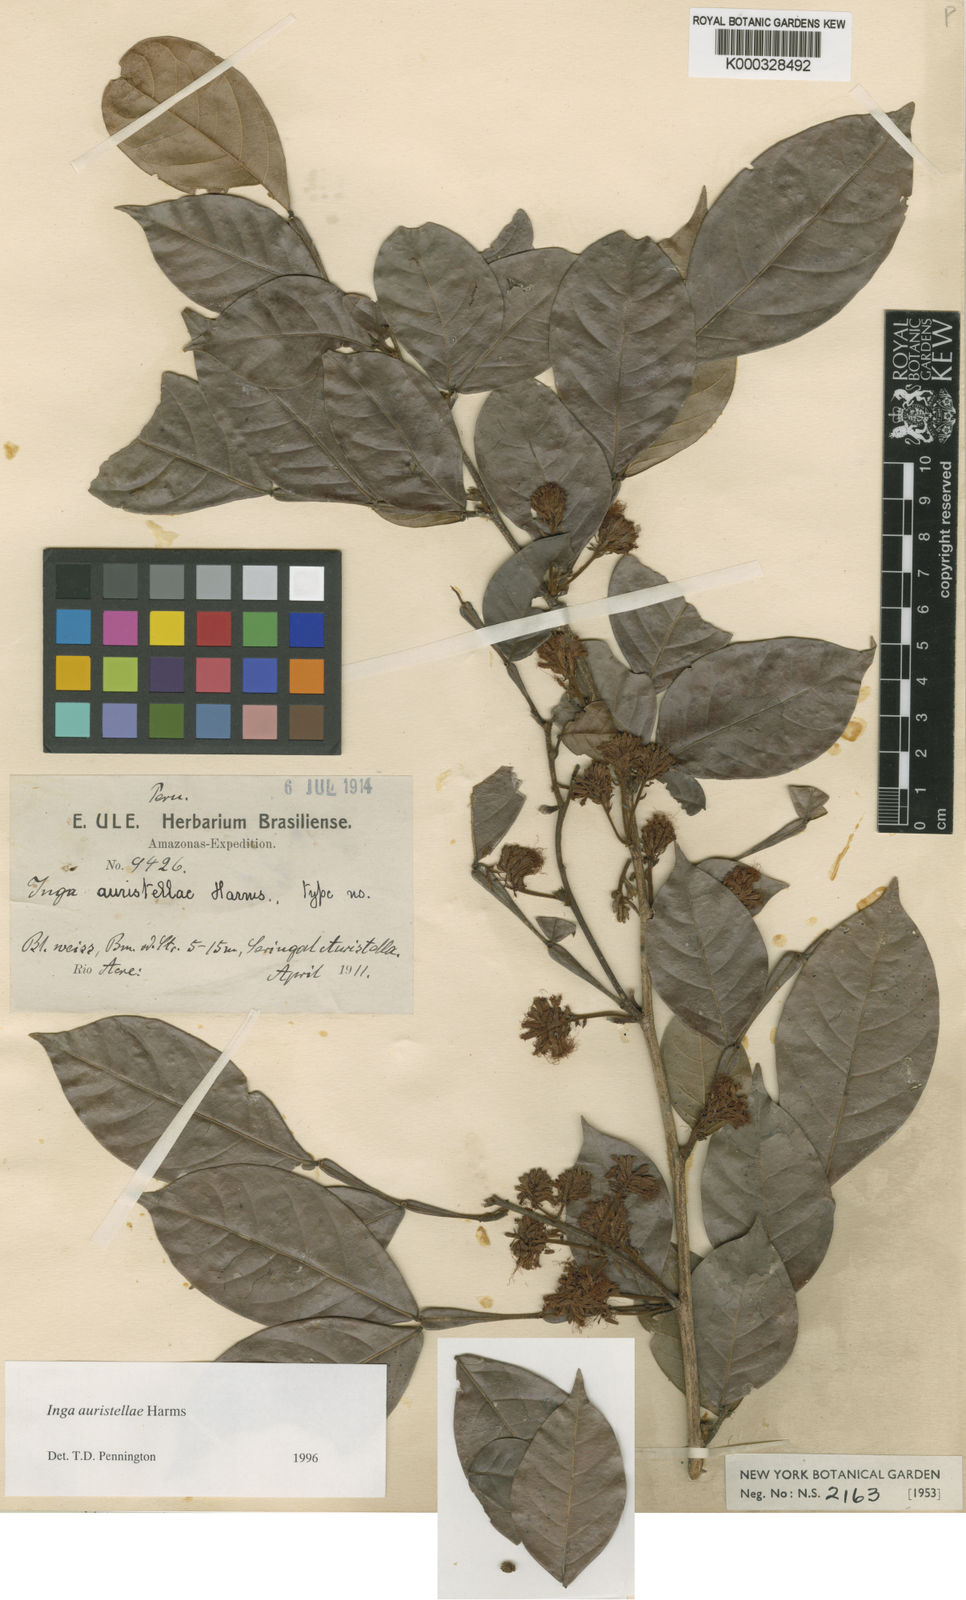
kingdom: Plantae
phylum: Tracheophyta
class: Magnoliopsida
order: Fabales
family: Fabaceae
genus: Inga
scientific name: Inga auristellae
